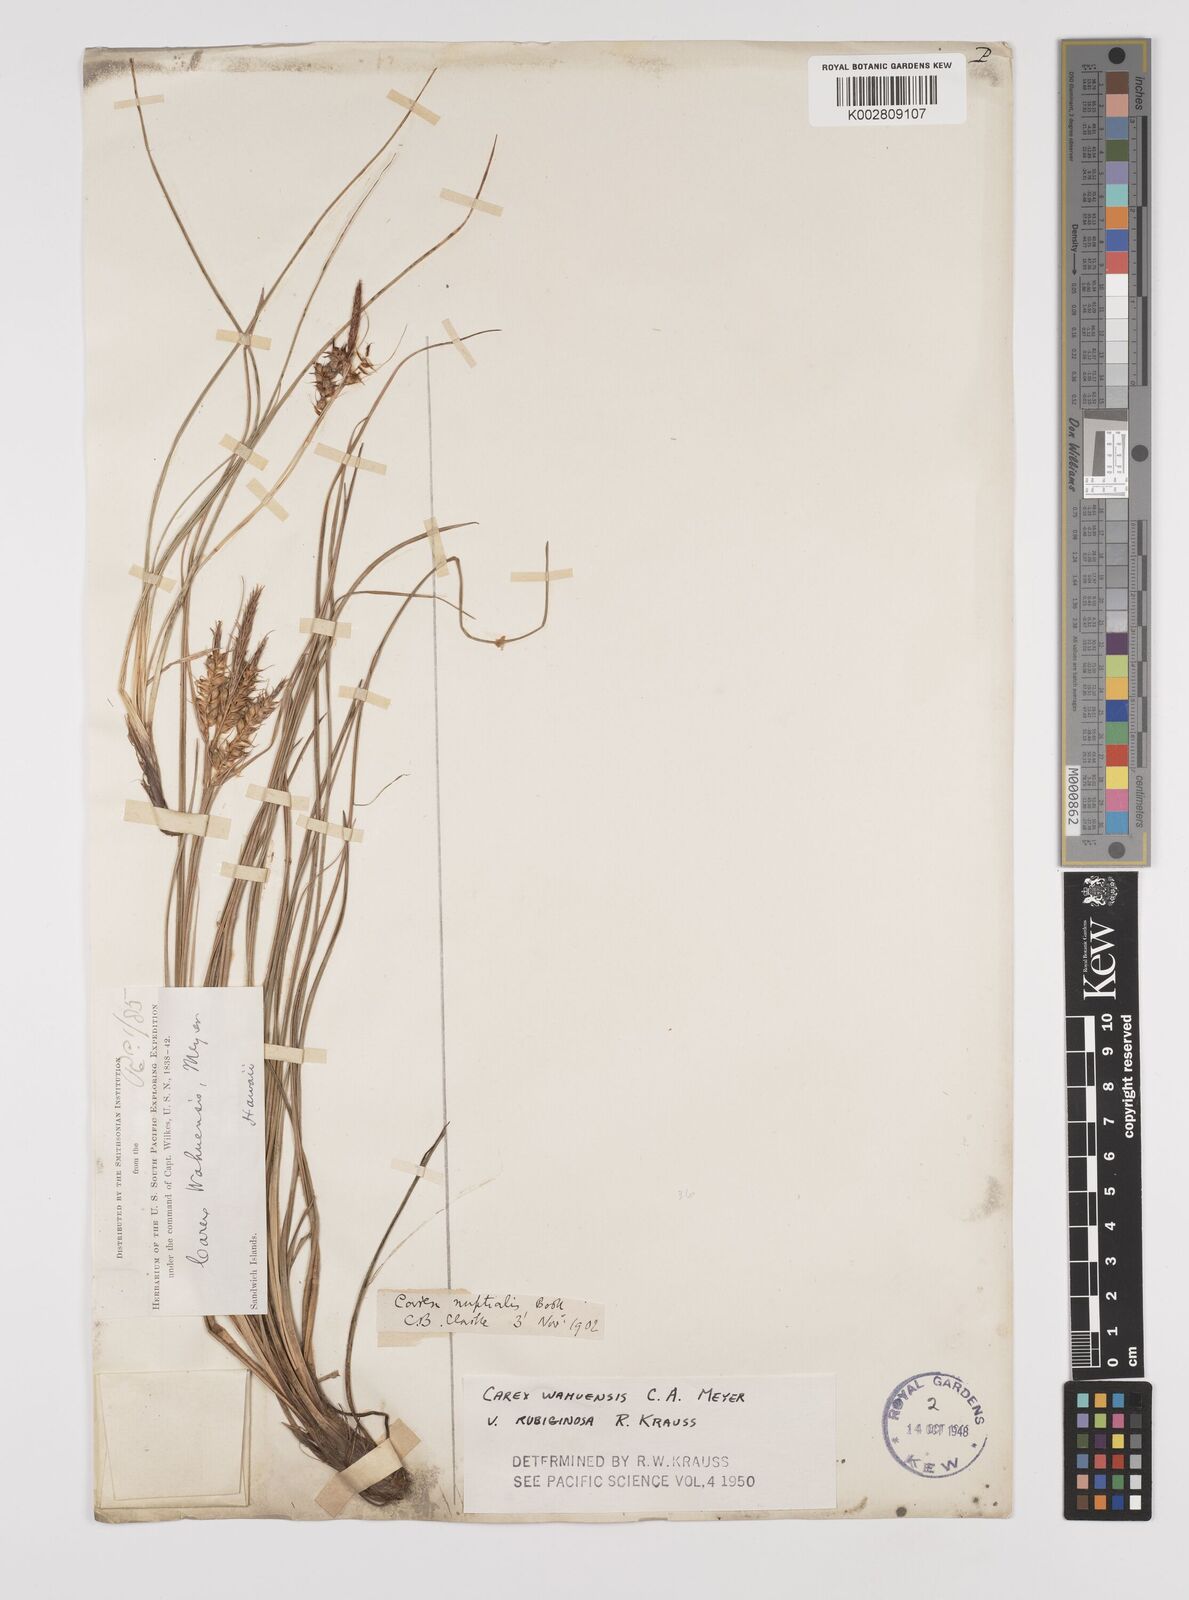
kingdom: Plantae
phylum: Tracheophyta
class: Liliopsida
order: Poales
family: Cyperaceae
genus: Carex
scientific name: Carex wahuensis
